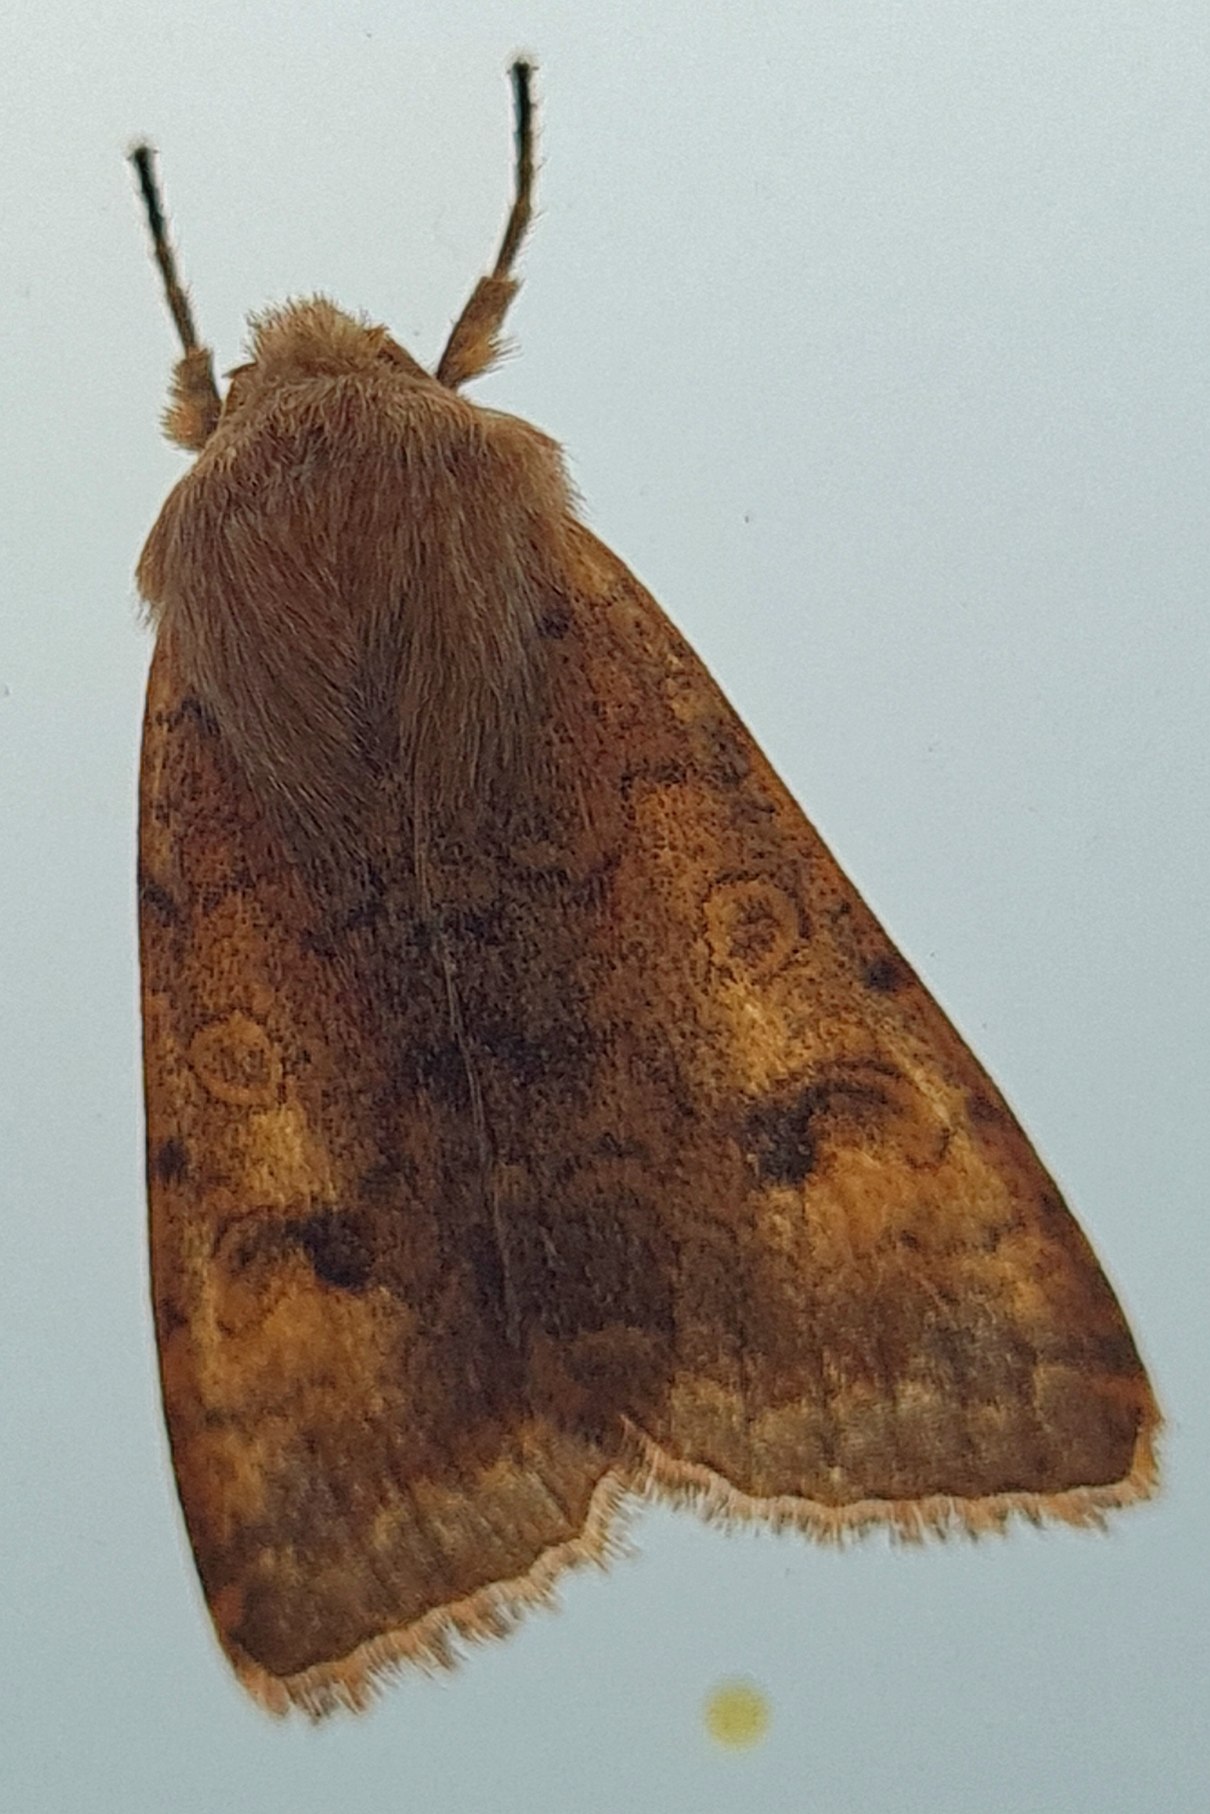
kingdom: Animalia
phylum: Arthropoda
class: Insecta
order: Lepidoptera
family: Noctuidae
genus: Sunira
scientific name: Sunira circellaris
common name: Cirkel-jordfarveugle
